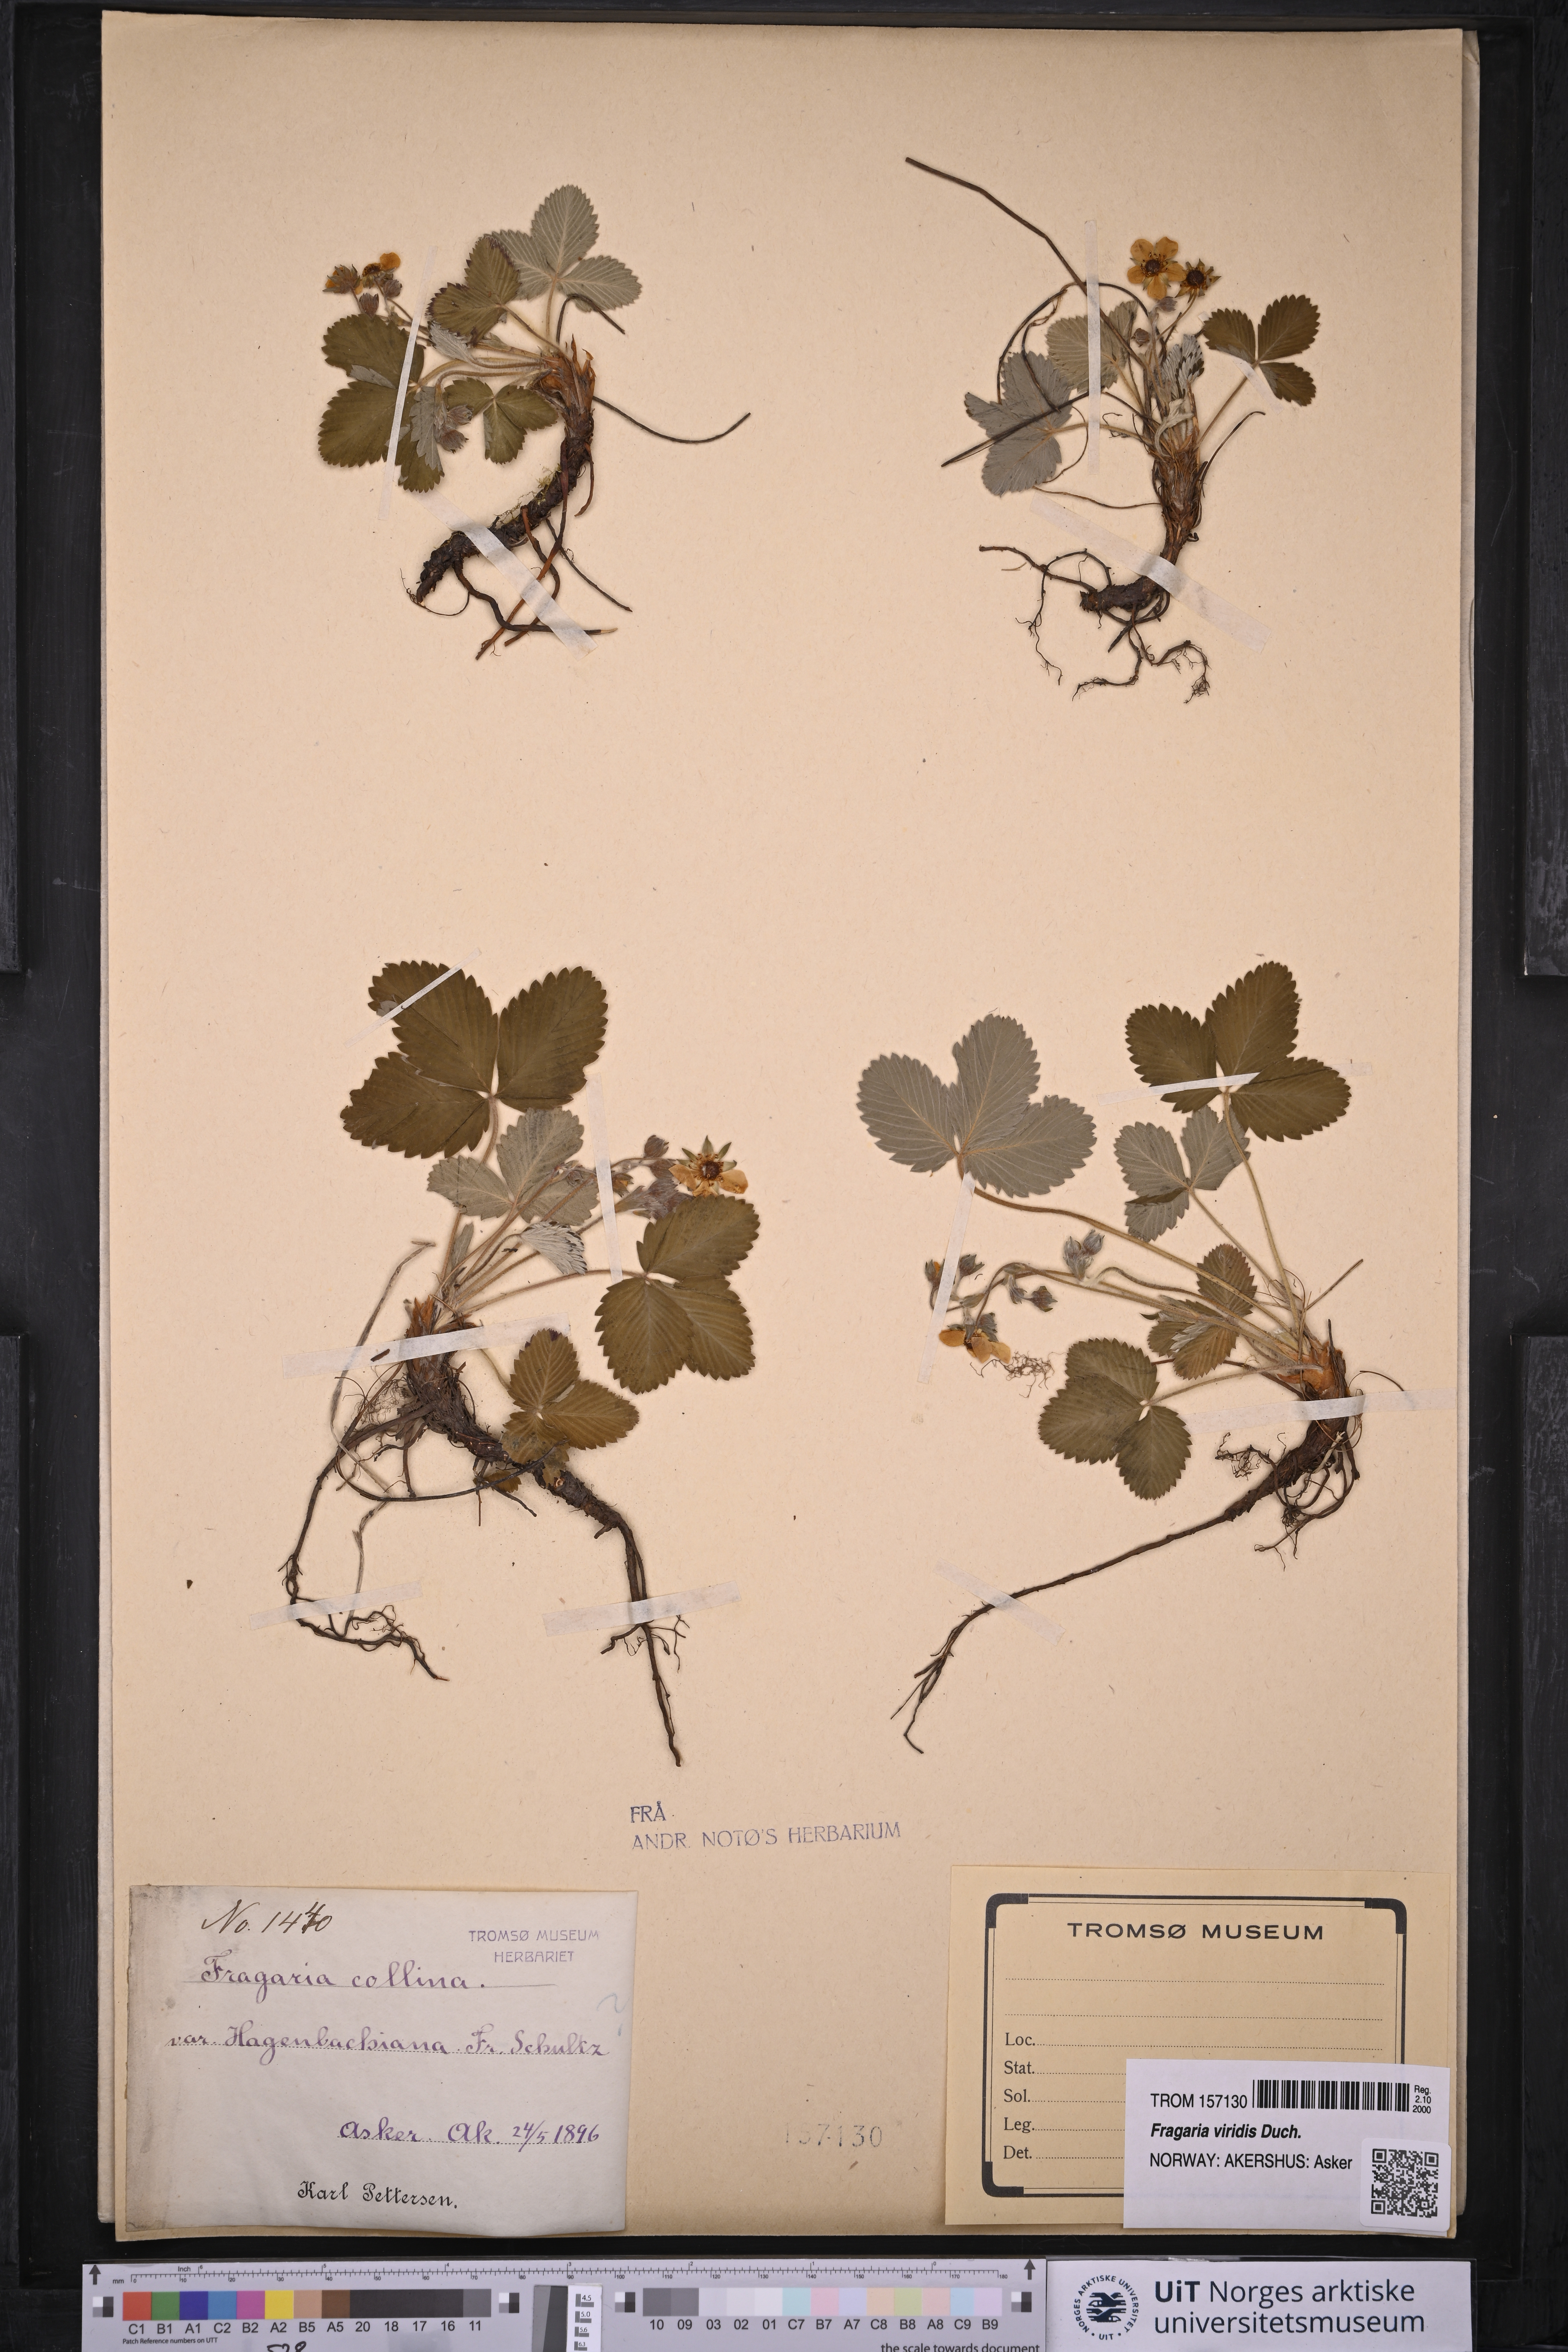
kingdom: Plantae
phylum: Tracheophyta
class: Magnoliopsida
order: Rosales
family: Rosaceae
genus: Fragaria
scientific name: Fragaria viridis
